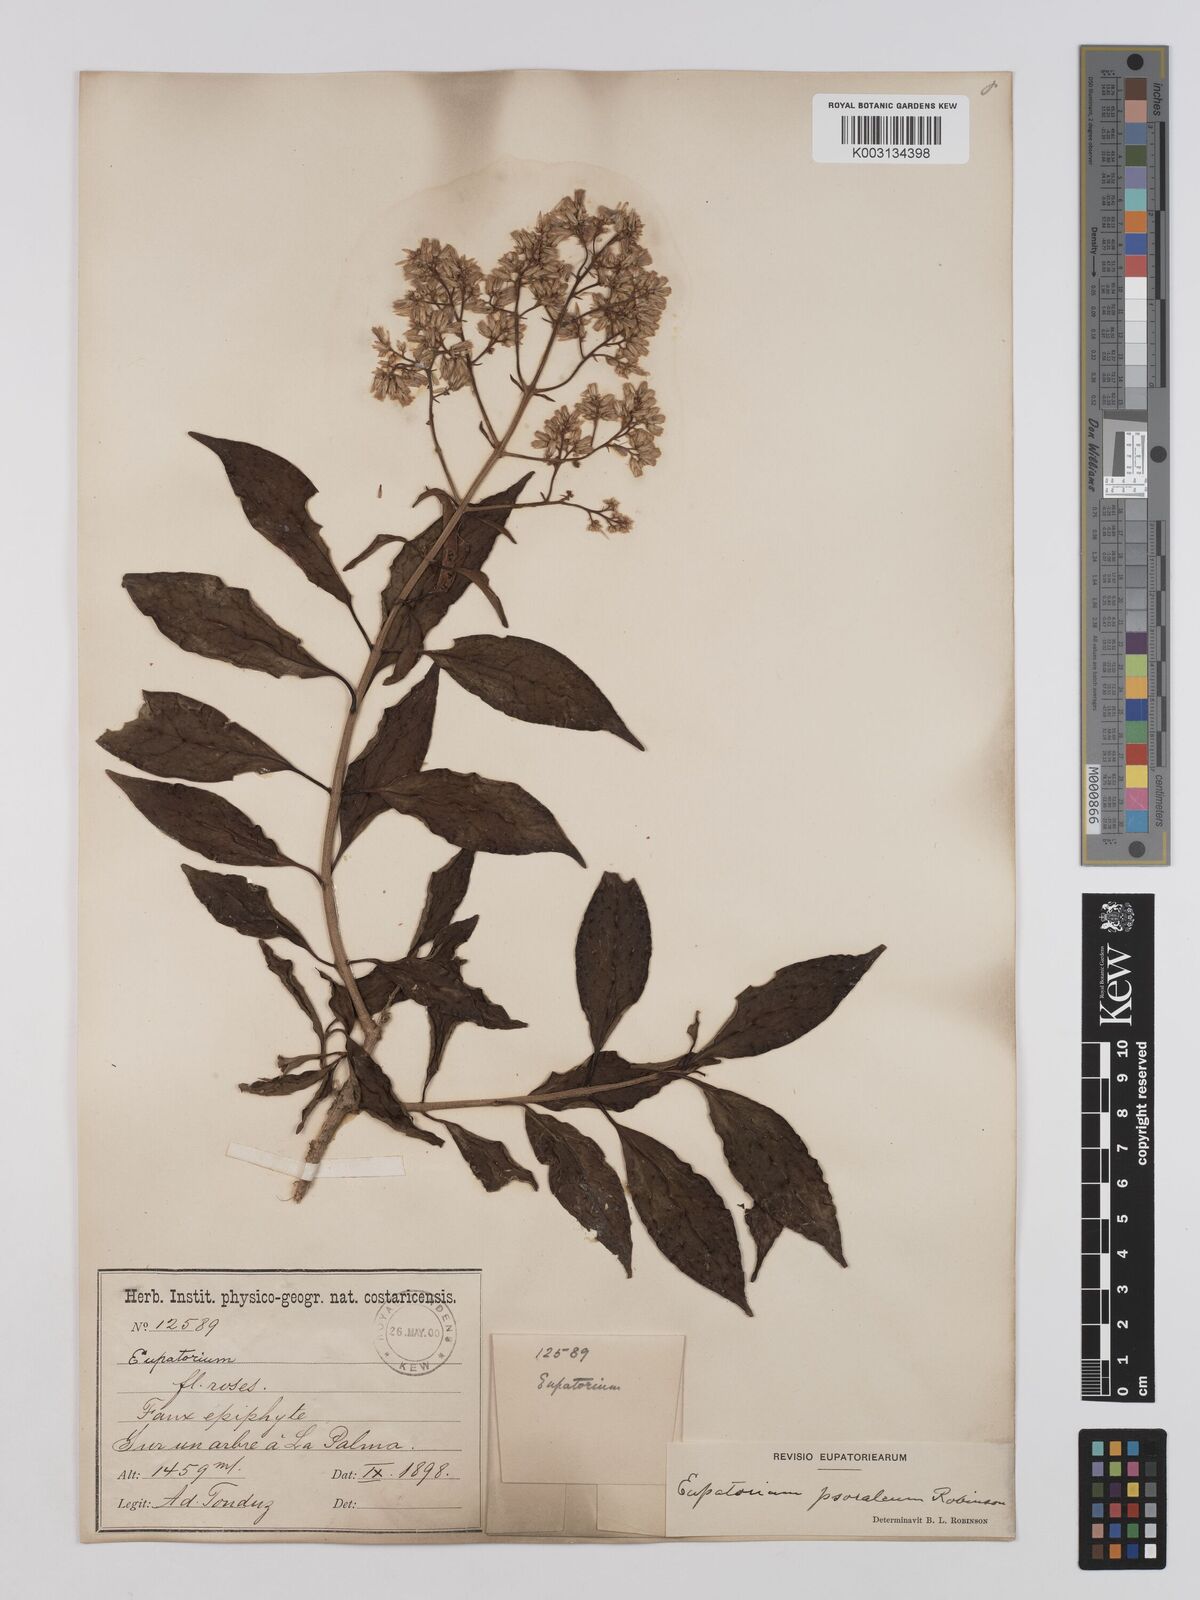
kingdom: Plantae
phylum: Tracheophyta
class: Magnoliopsida
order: Asterales
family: Asteraceae
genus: Neomirandea
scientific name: Neomirandea psoralea
